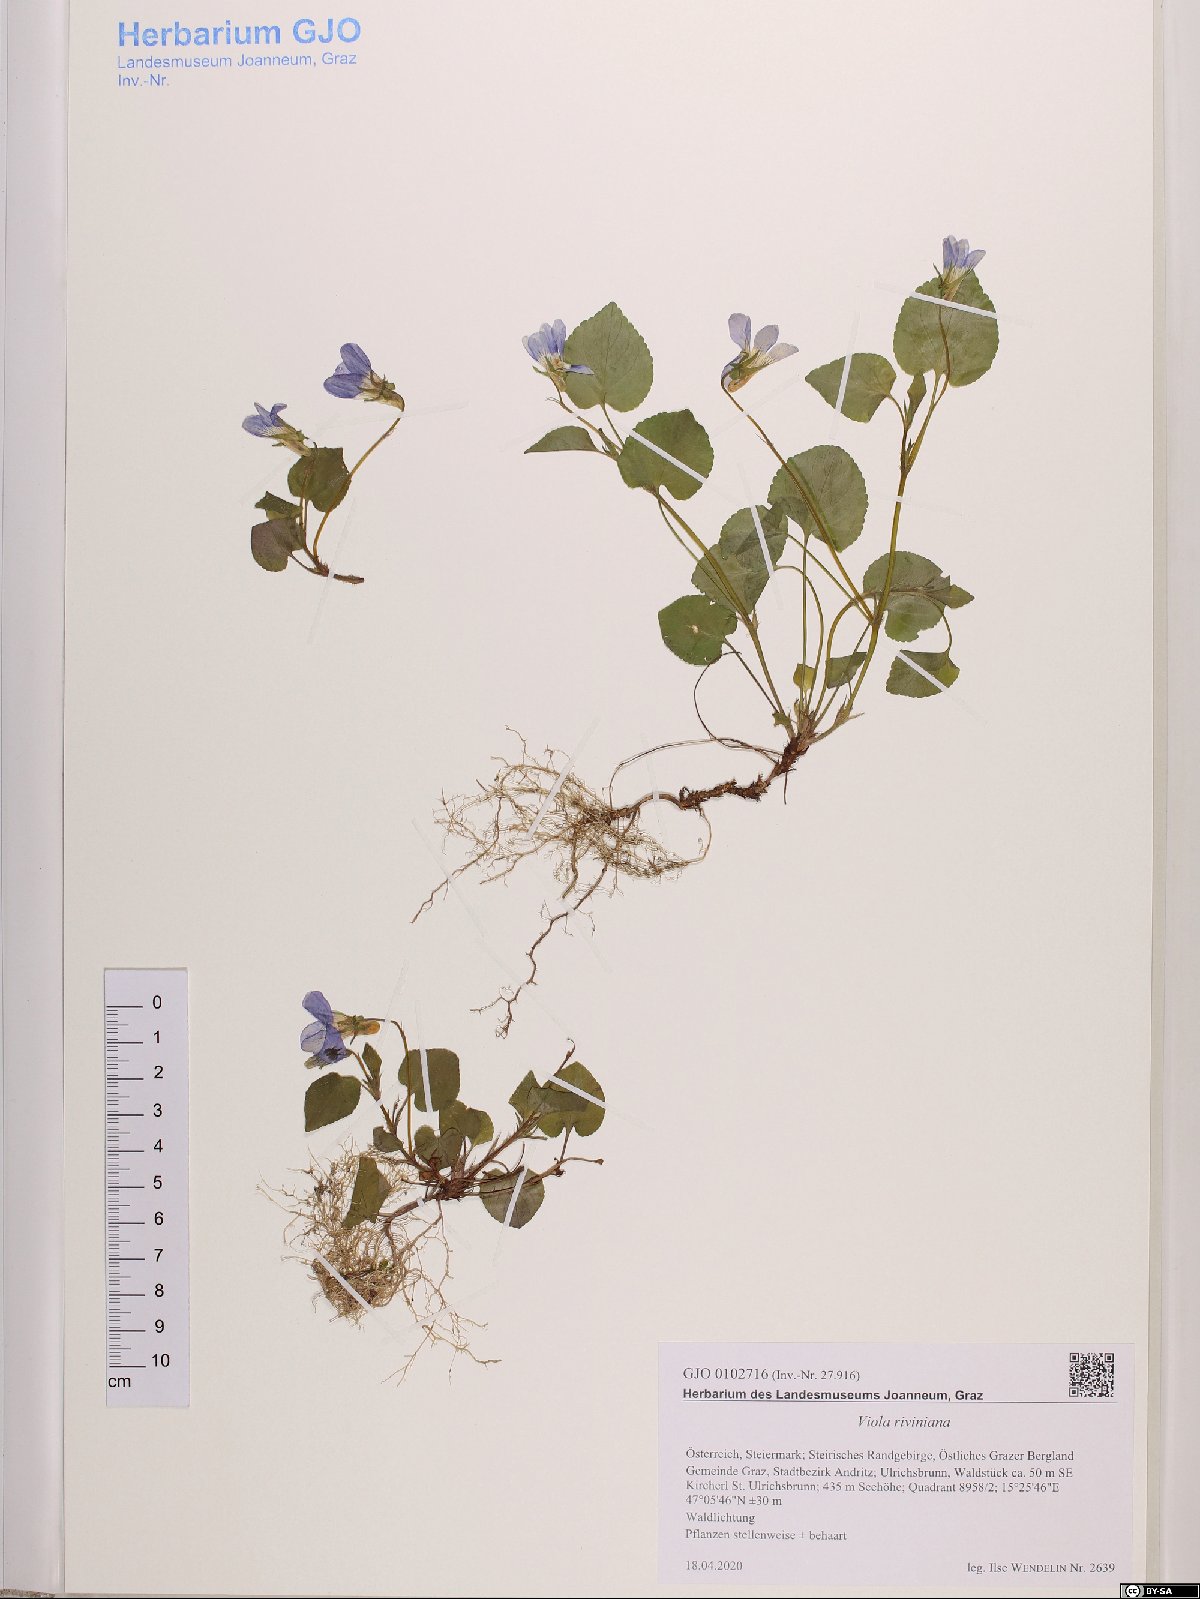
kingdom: Plantae
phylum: Tracheophyta
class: Magnoliopsida
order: Malpighiales
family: Violaceae
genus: Viola
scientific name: Viola riviniana
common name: Common dog-violet
